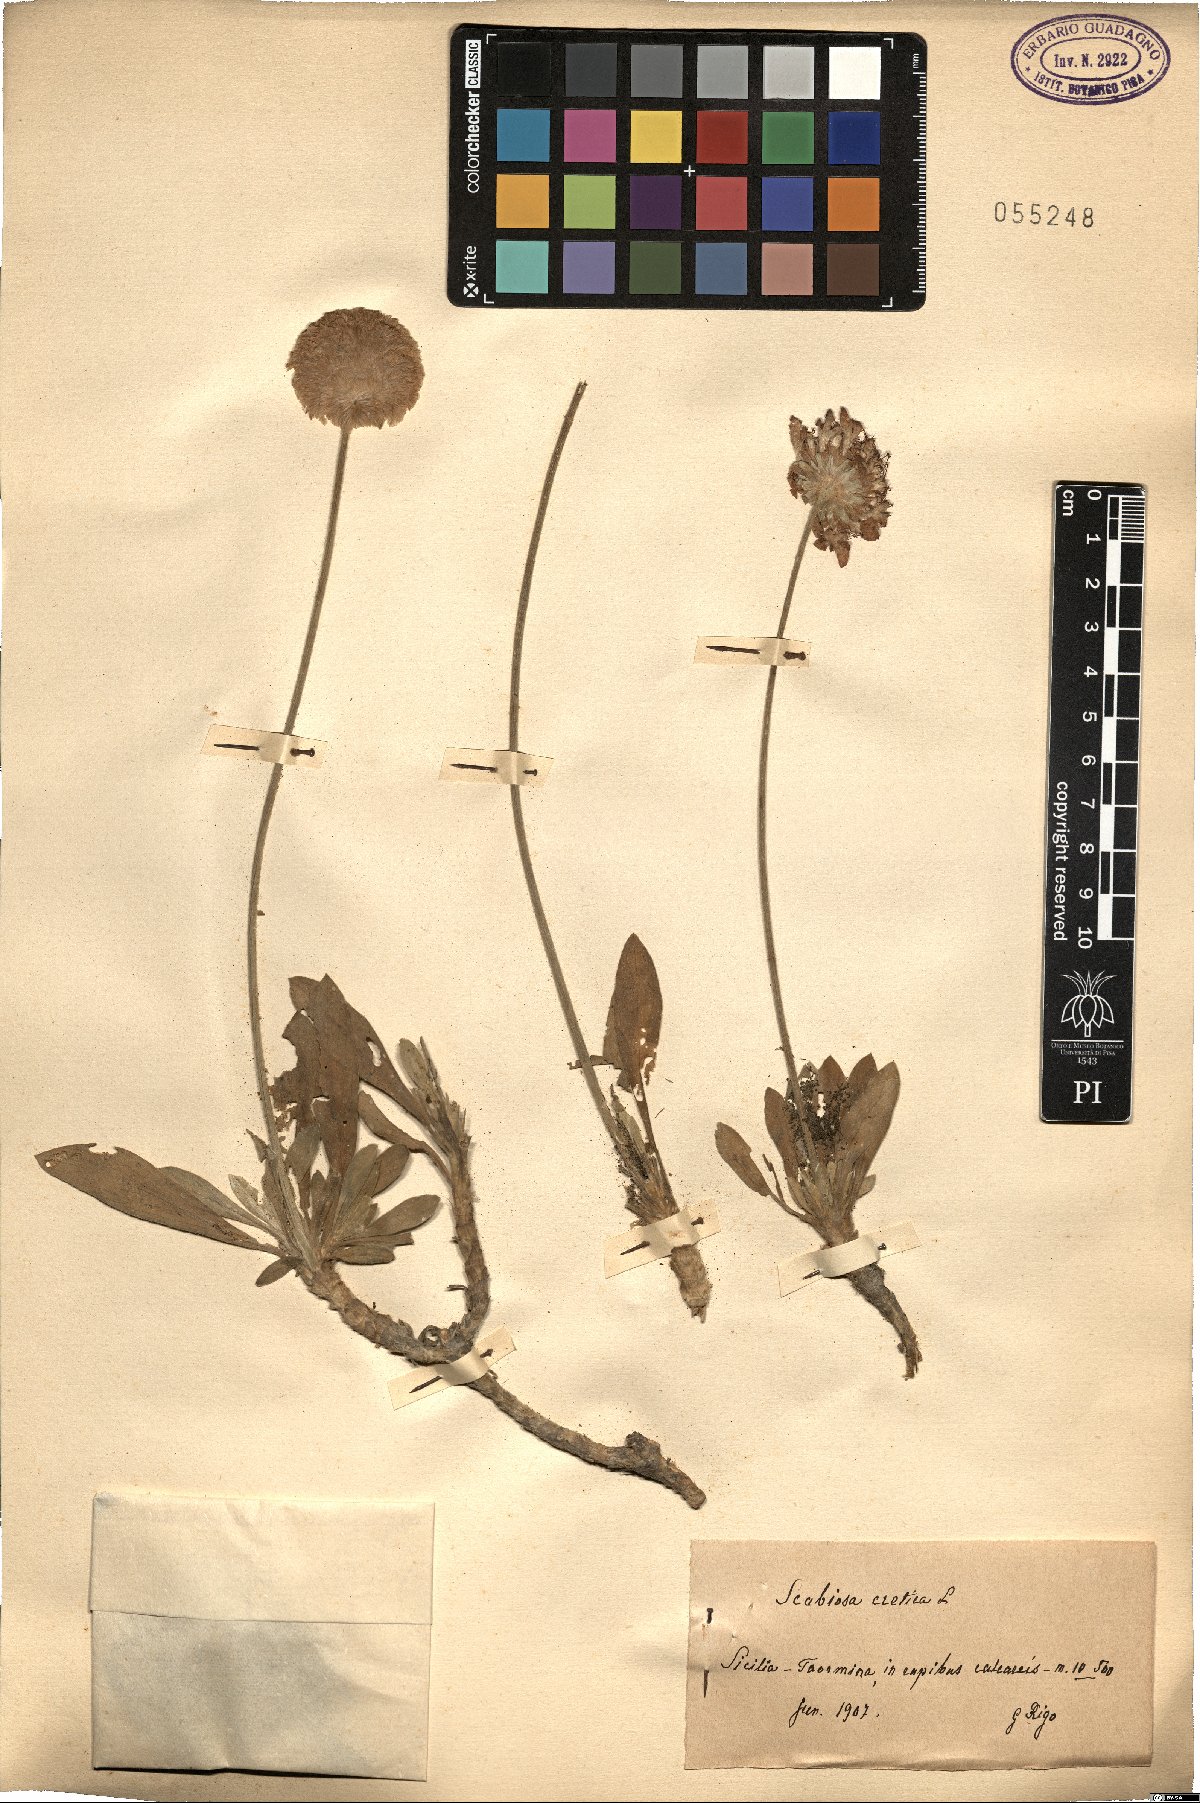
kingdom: Plantae
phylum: Tracheophyta
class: Magnoliopsida
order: Dipsacales
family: Caprifoliaceae
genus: Lomelosia
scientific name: Lomelosia cretica
